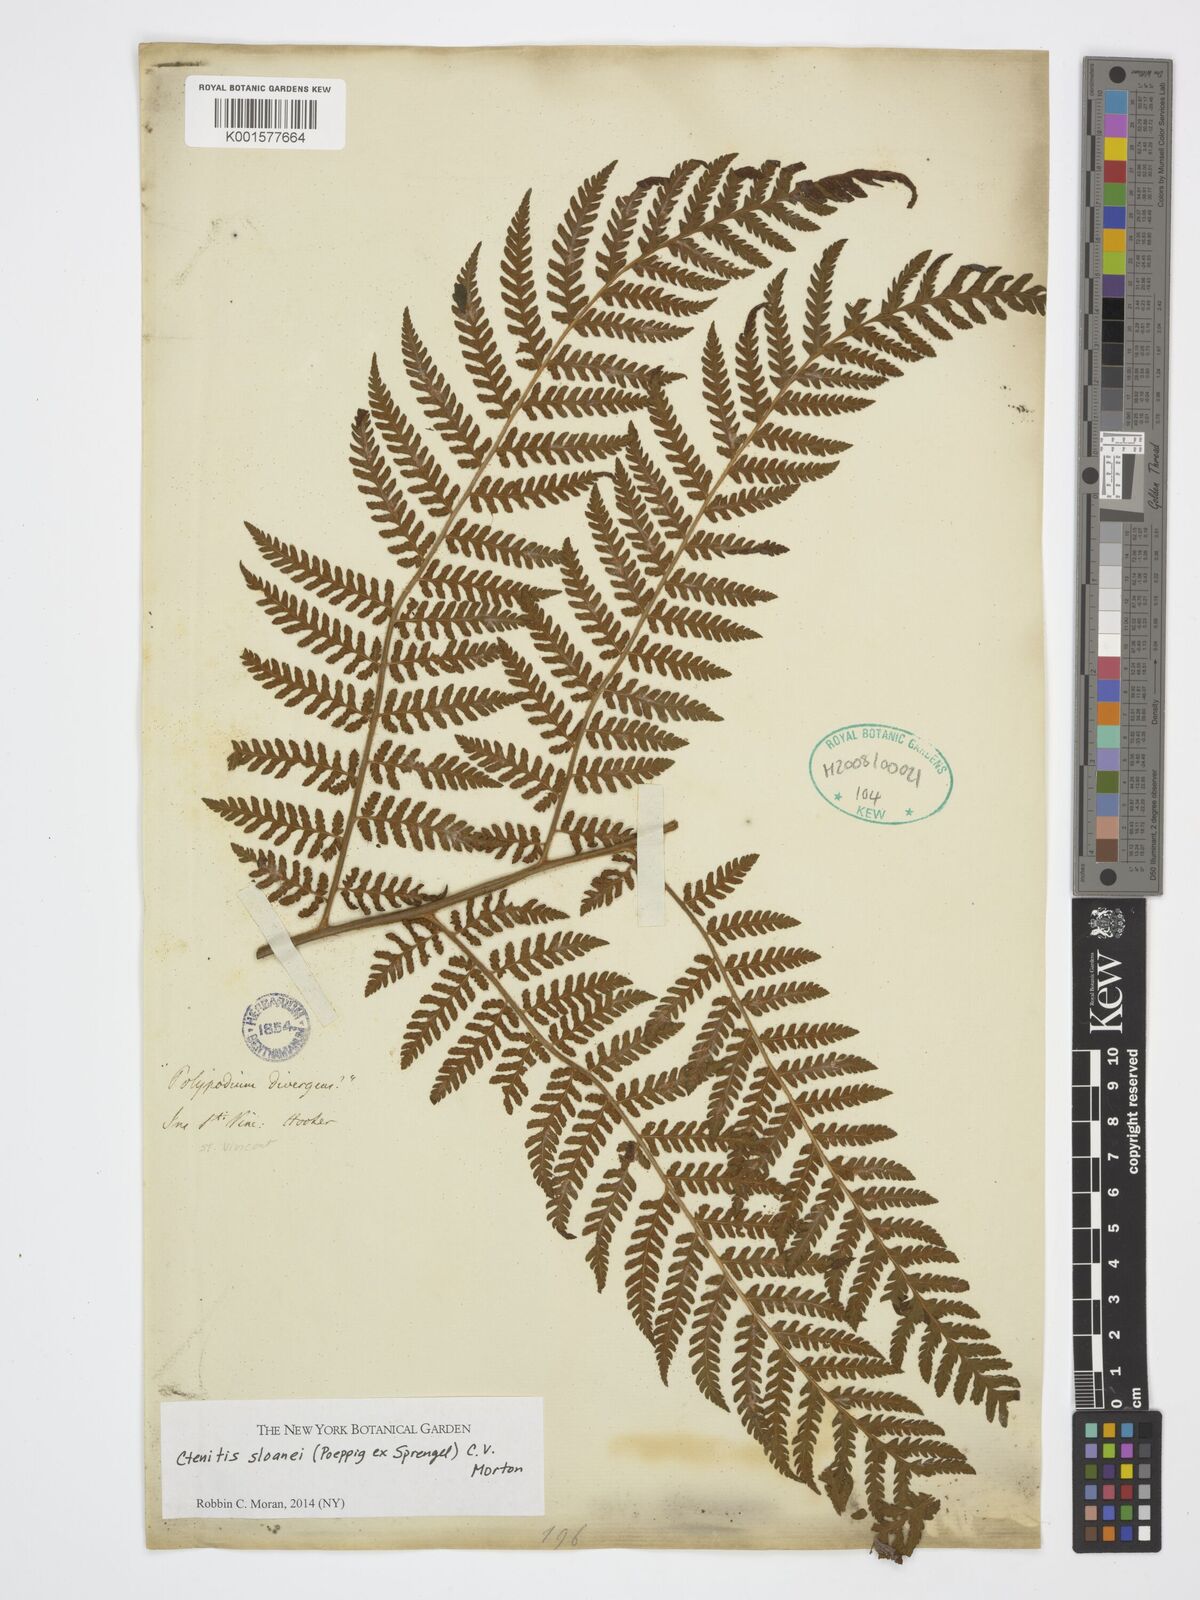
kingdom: Plantae
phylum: Tracheophyta
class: Polypodiopsida
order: Polypodiales
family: Dryopteridaceae
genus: Ctenitis
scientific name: Ctenitis sloanei
